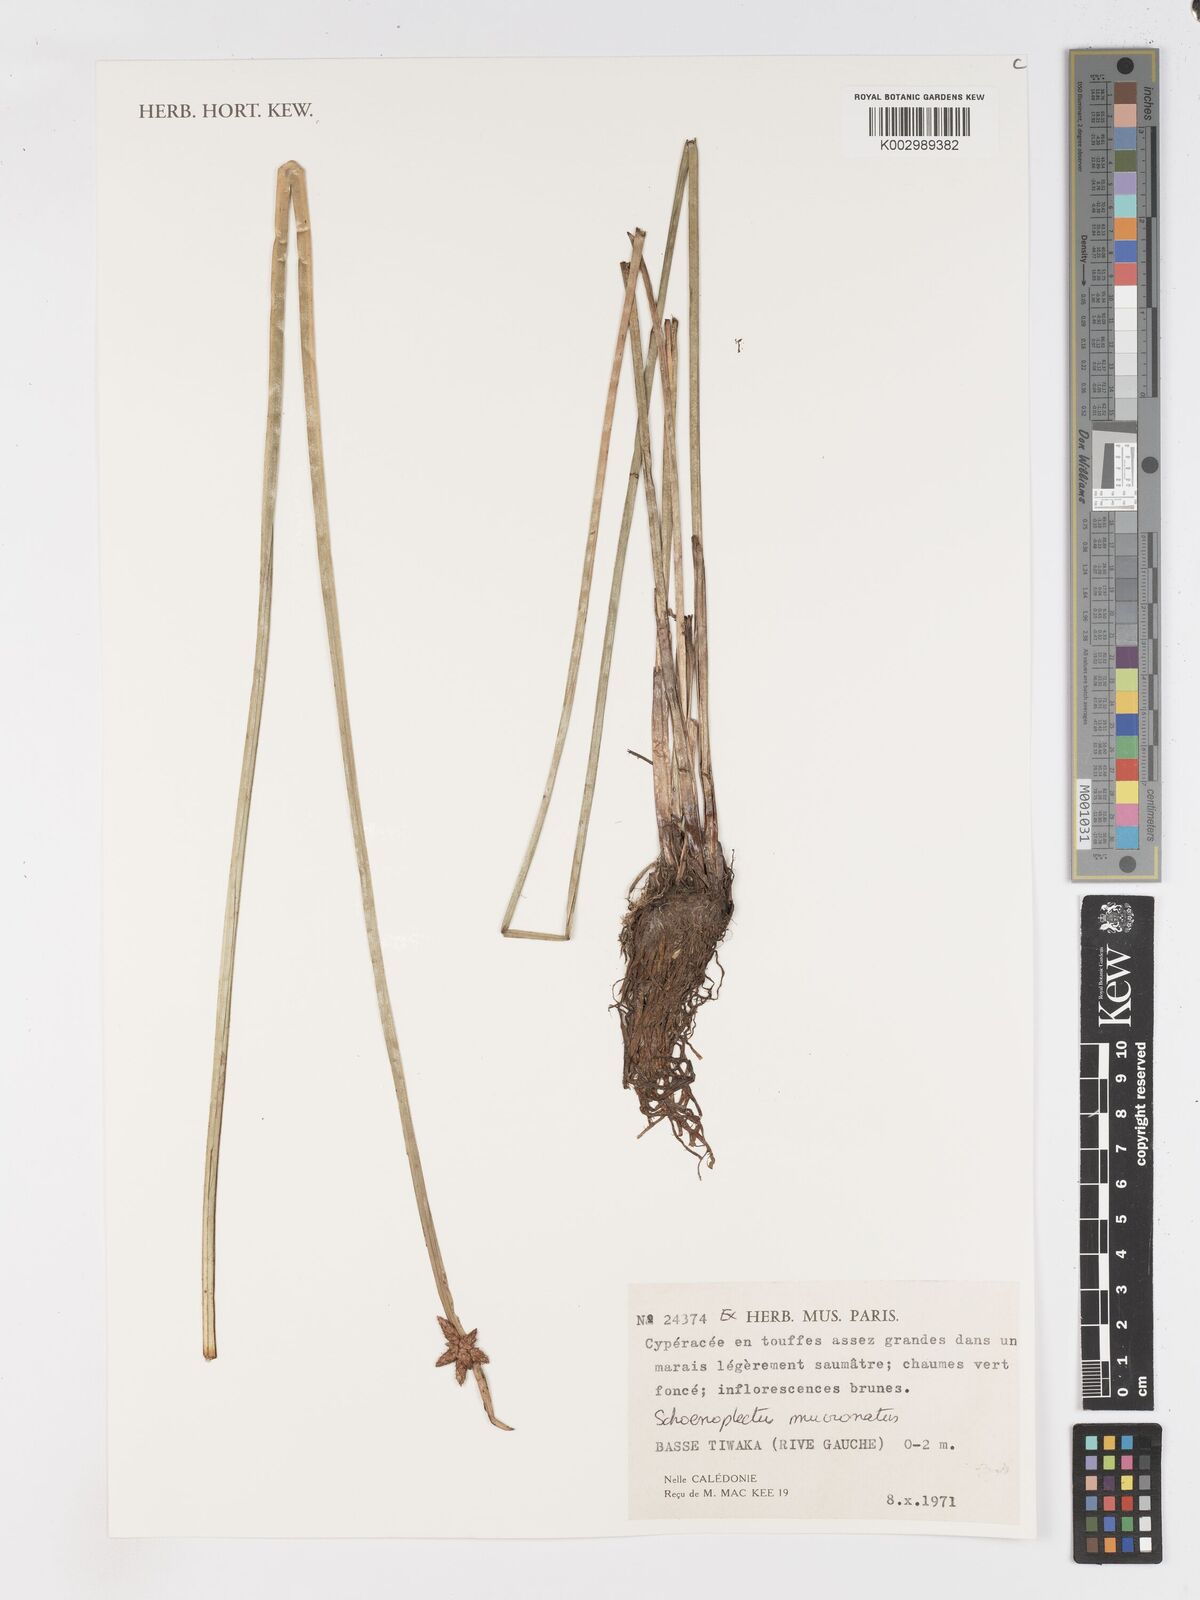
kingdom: Plantae
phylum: Tracheophyta
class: Liliopsida
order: Poales
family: Cyperaceae
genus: Schoenoplectiella
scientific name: Schoenoplectiella mucronata
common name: Bog bulrush
